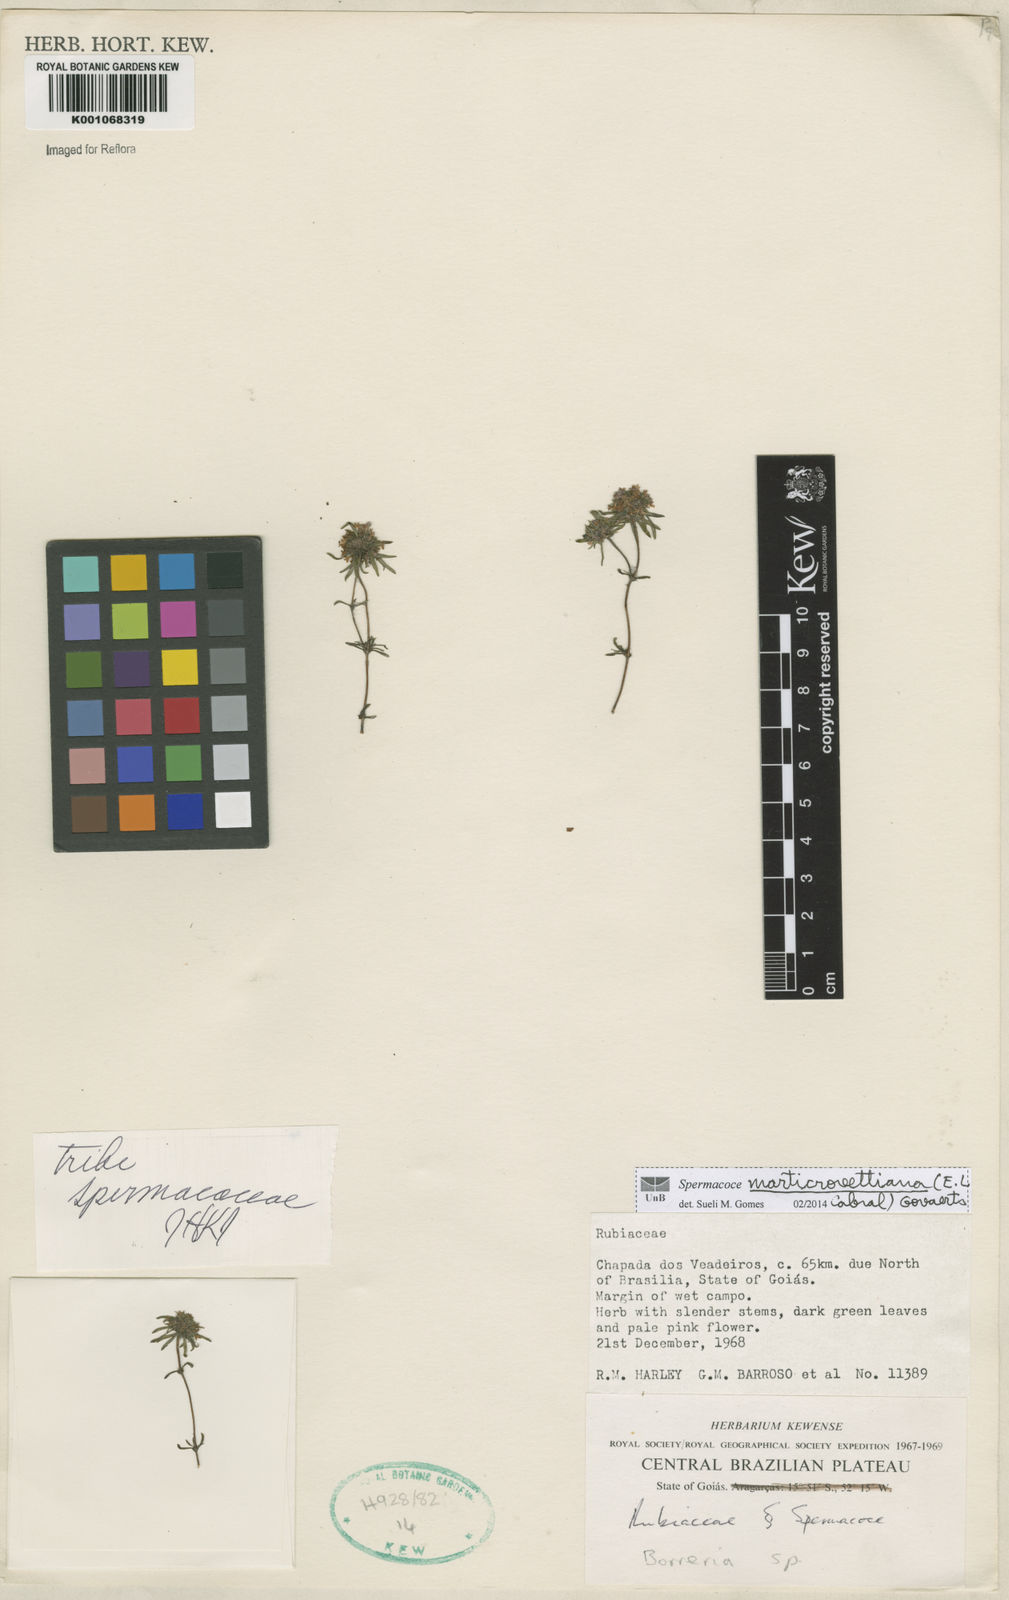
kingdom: Plantae
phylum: Tracheophyta
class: Magnoliopsida
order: Gentianales
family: Rubiaceae
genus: Spermacoce
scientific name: Spermacoce marticrovettiana
